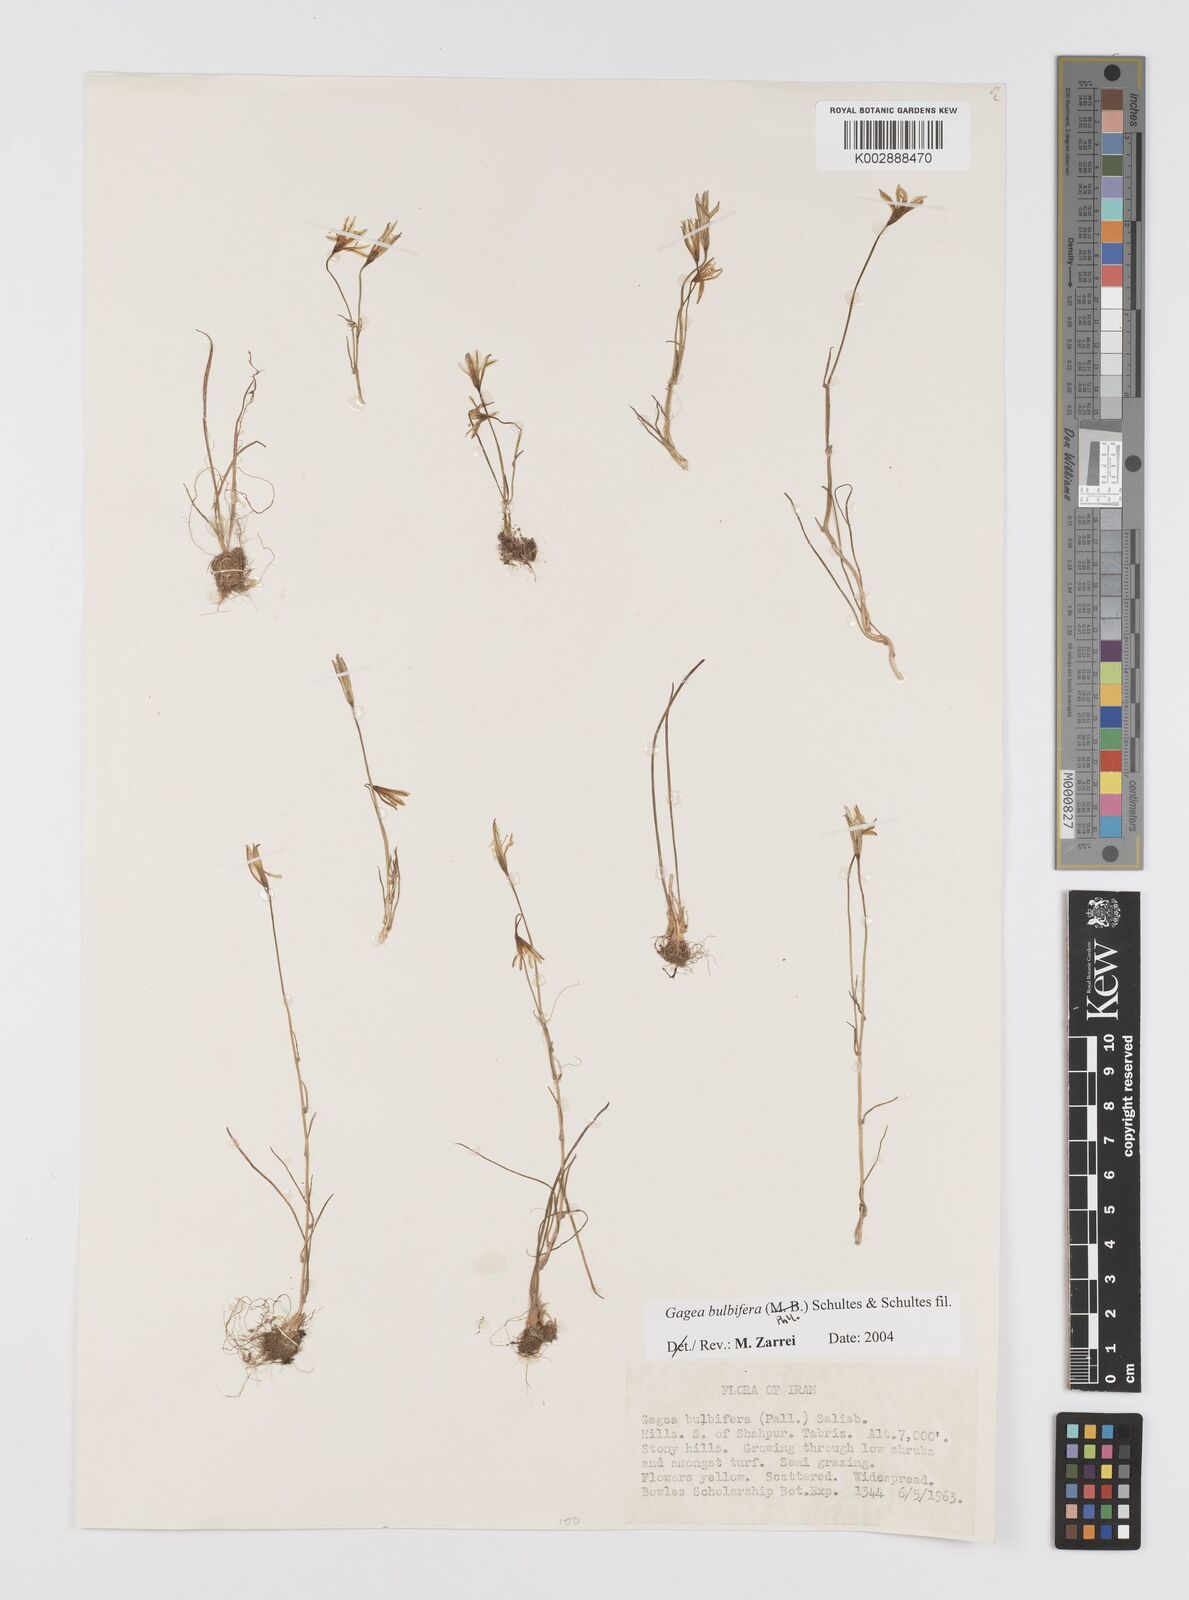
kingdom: Plantae
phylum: Tracheophyta
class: Liliopsida
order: Liliales
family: Liliaceae
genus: Gagea
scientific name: Gagea bulbifera
